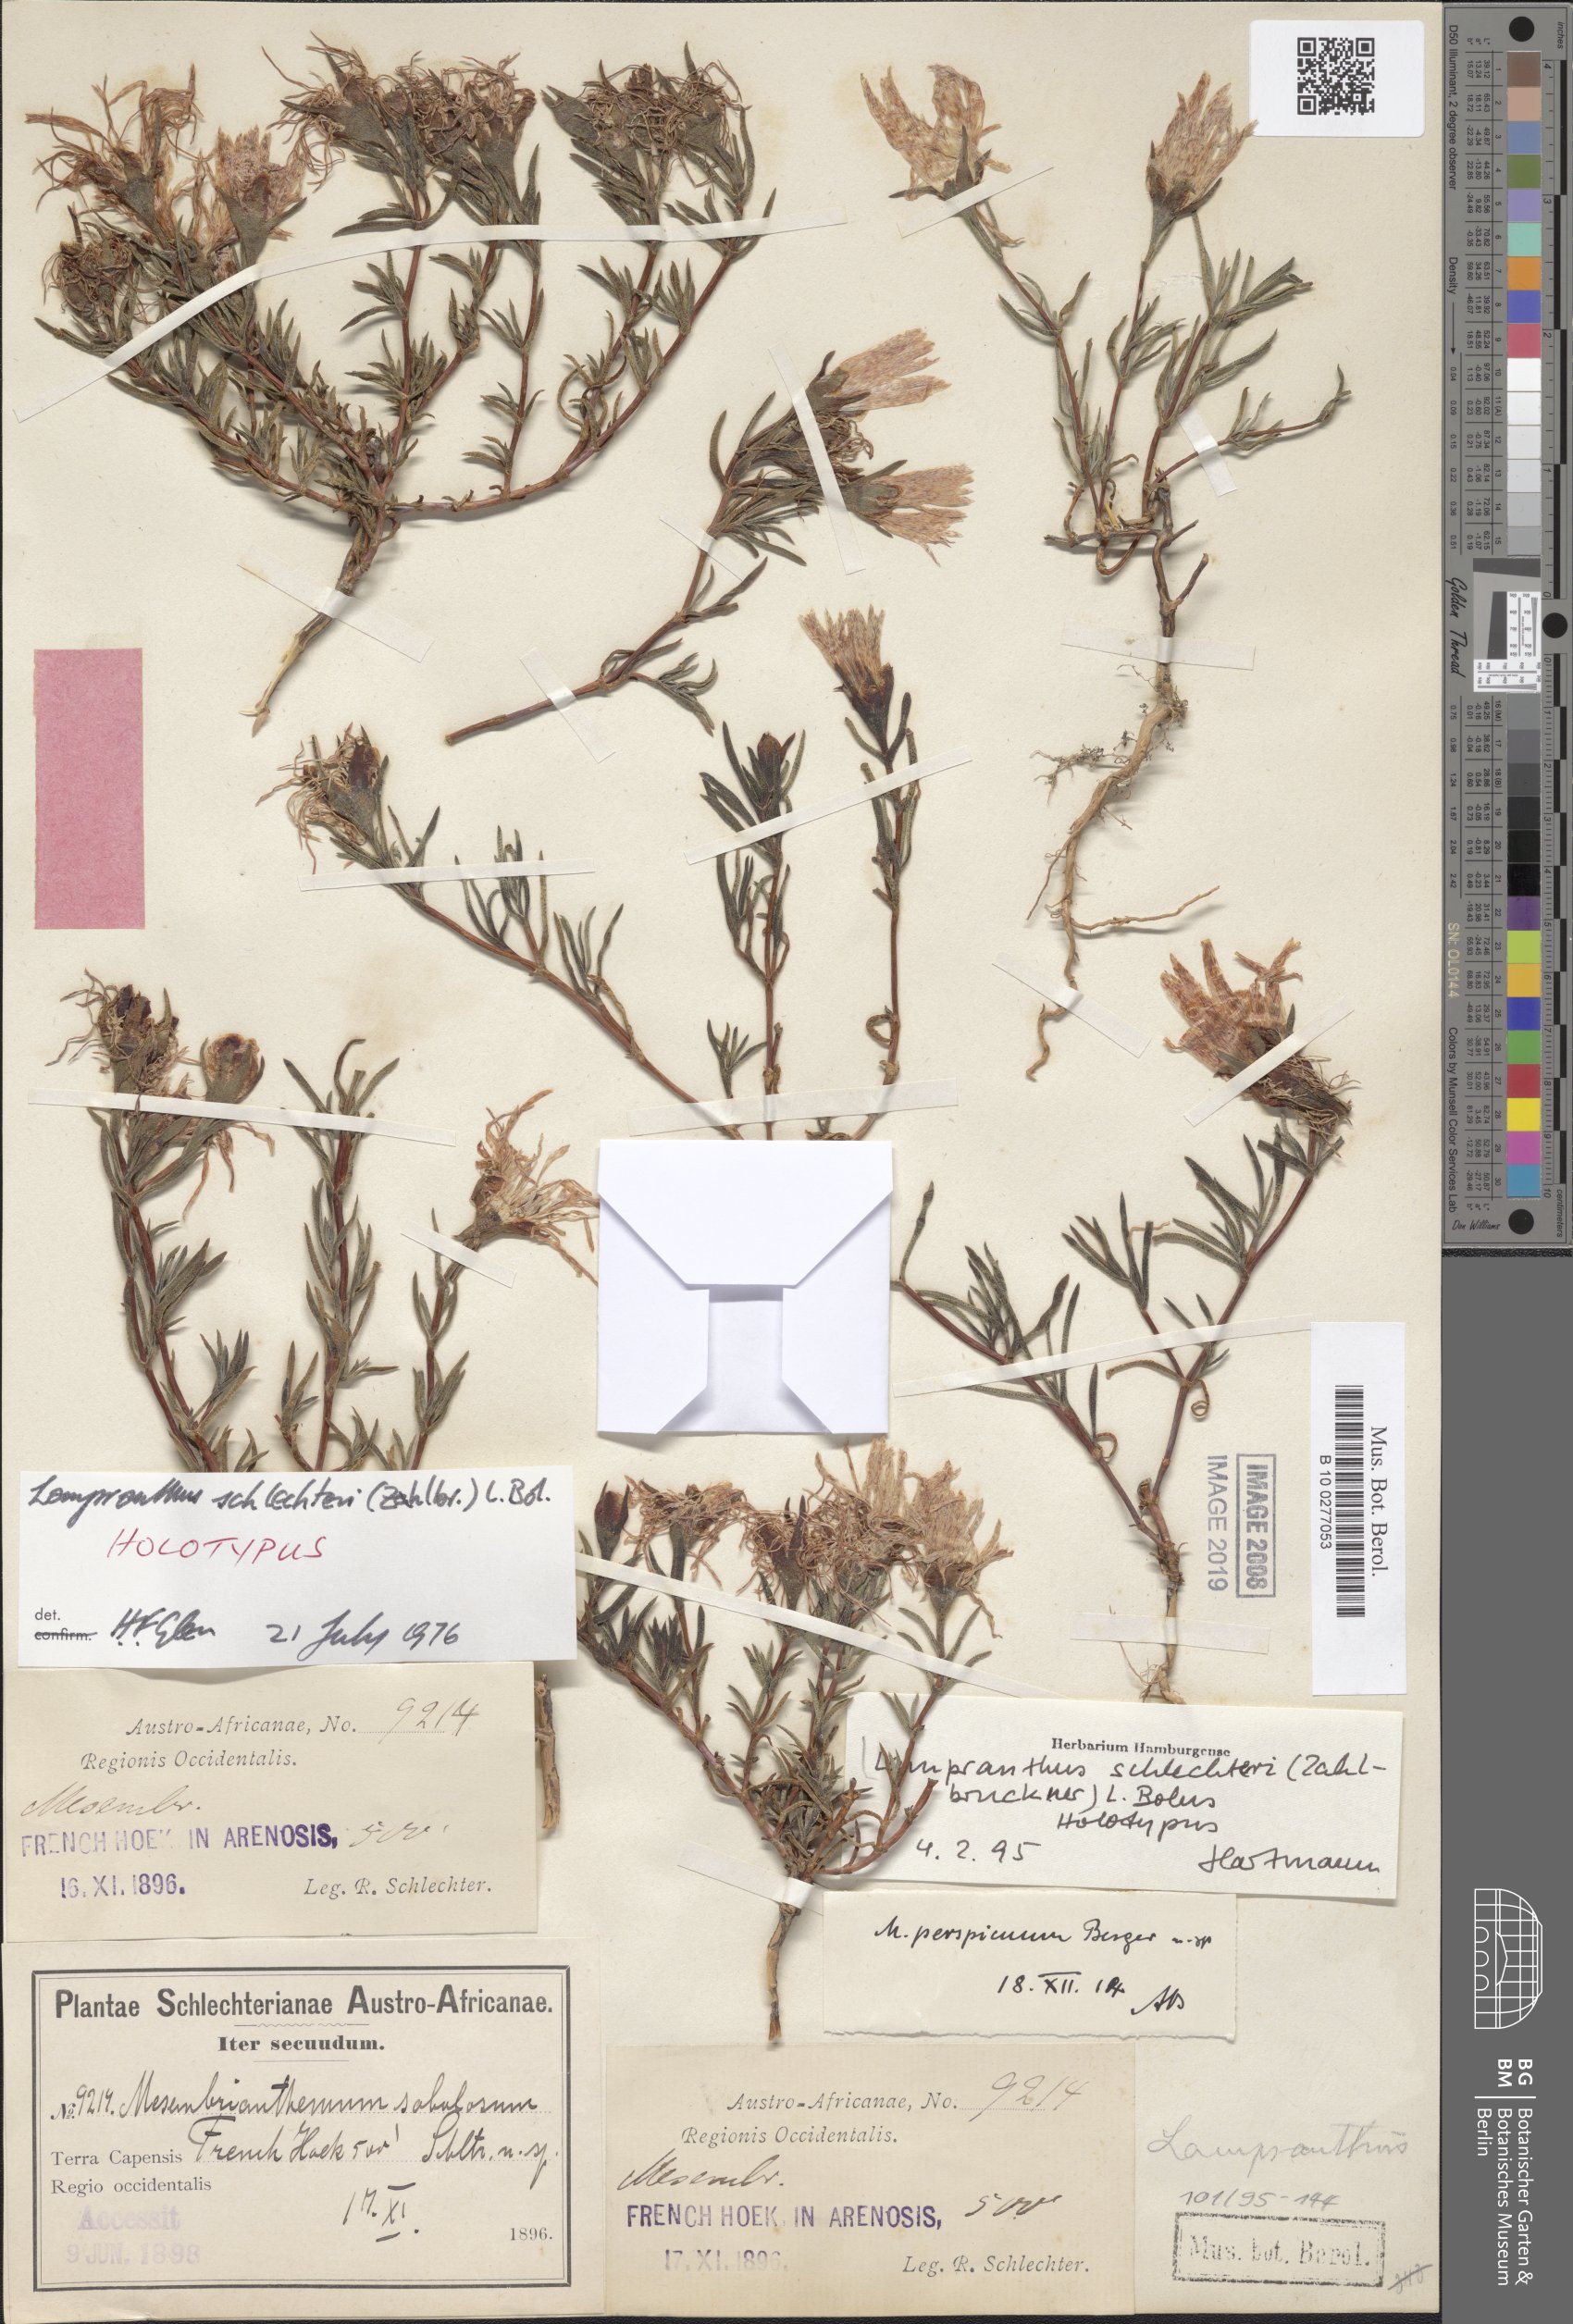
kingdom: Plantae
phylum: Tracheophyta
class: Magnoliopsida
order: Caryophyllales
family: Aizoaceae
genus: Lampranthus
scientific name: Lampranthus schlechteri
